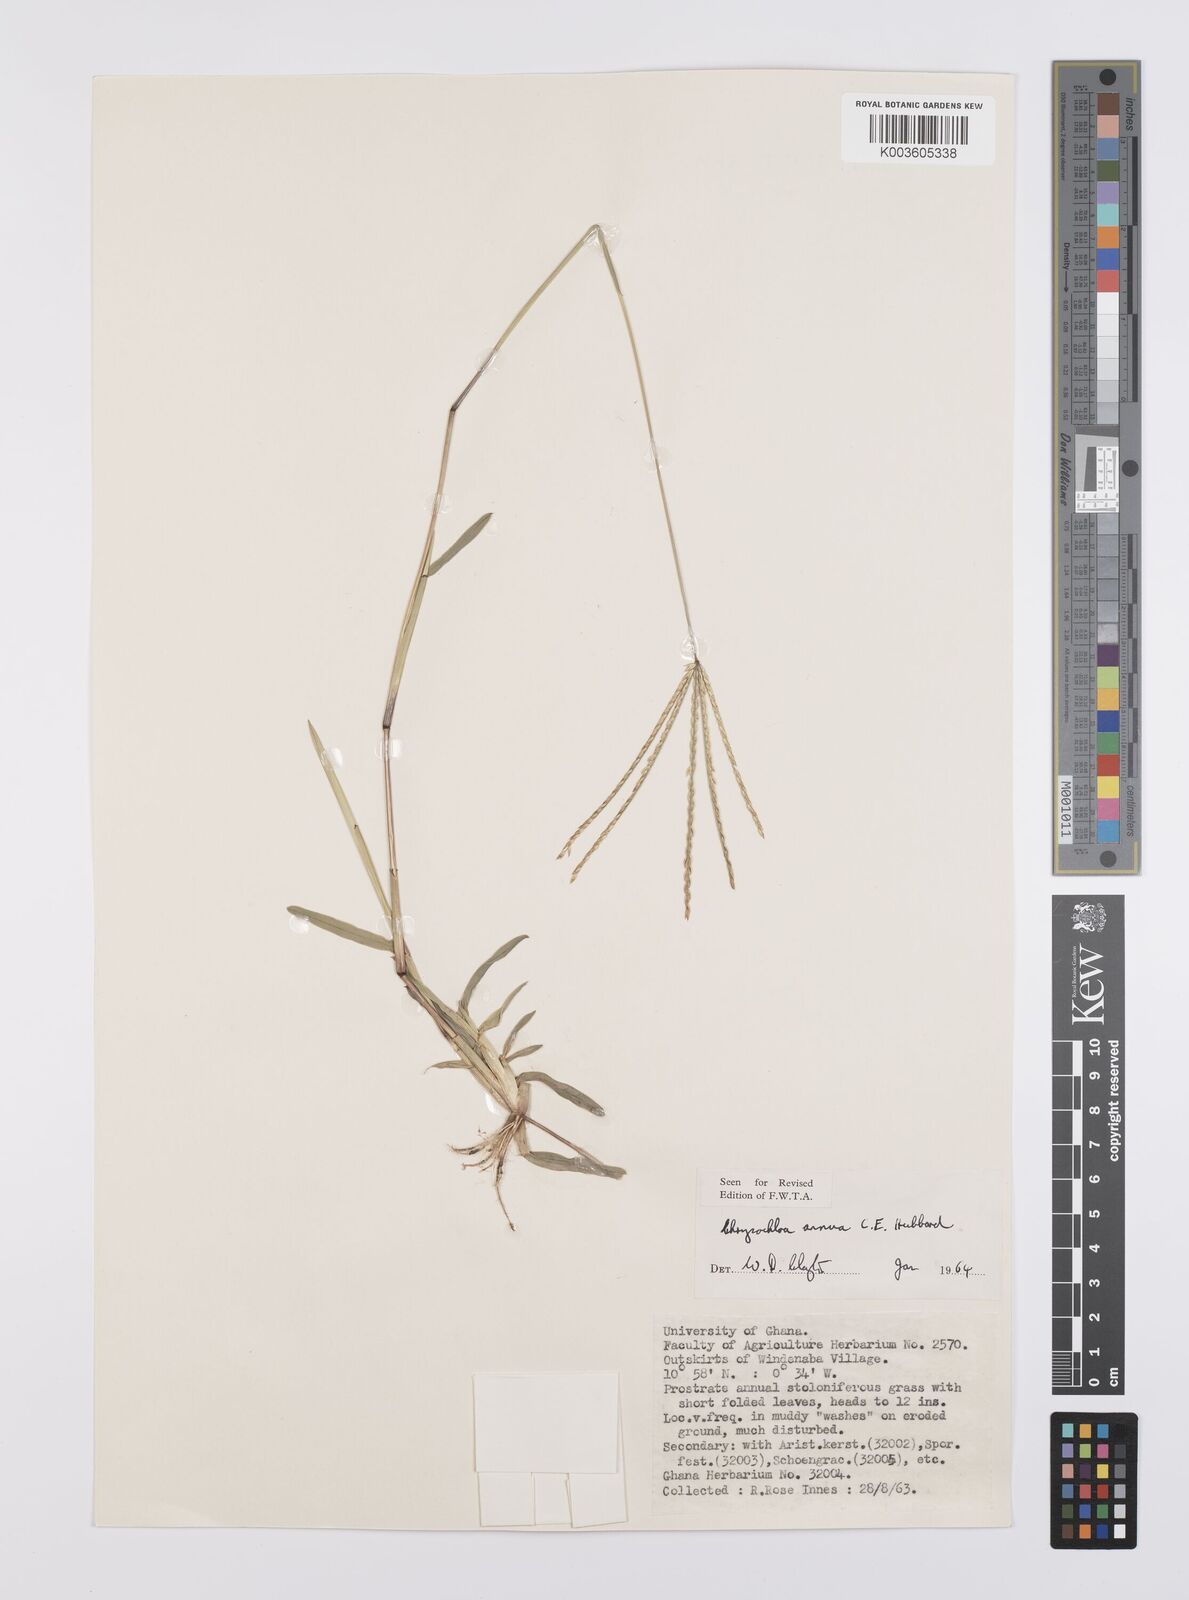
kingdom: Plantae
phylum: Tracheophyta
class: Liliopsida
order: Poales
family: Poaceae
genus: Chrysochloa
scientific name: Chrysochloa hindsii
